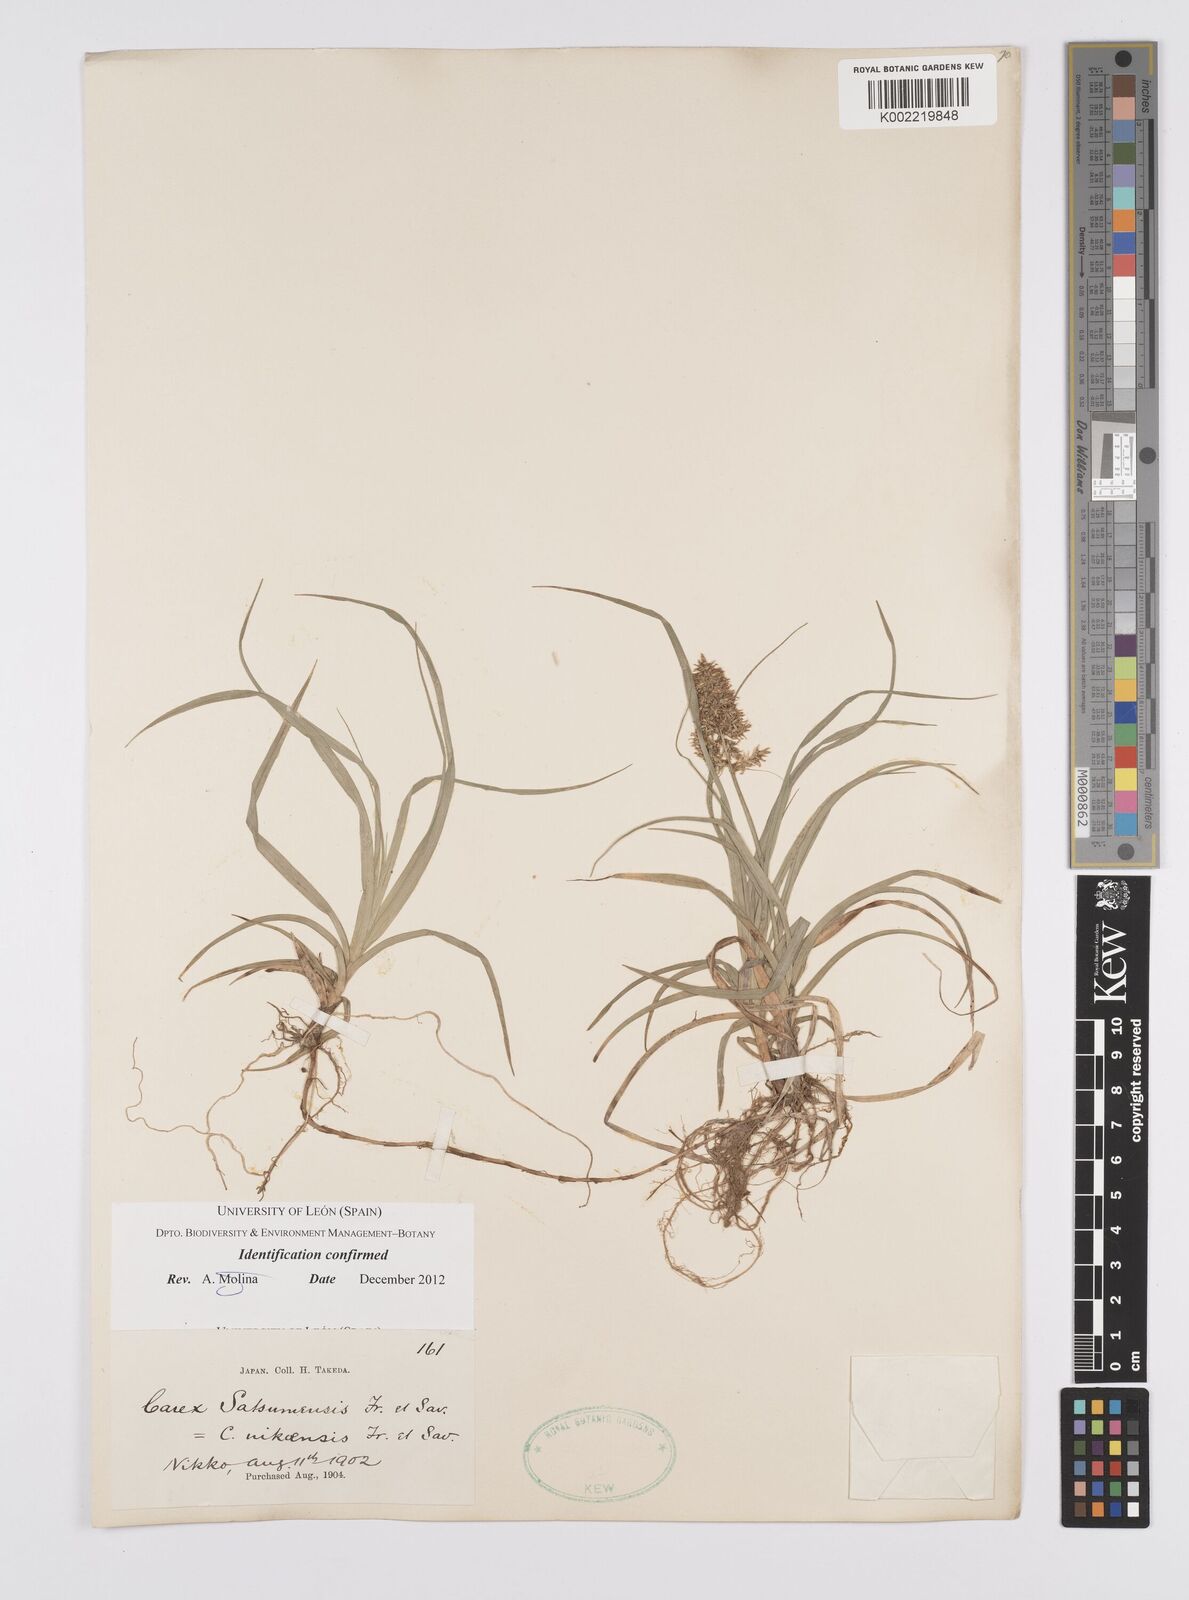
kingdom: Plantae
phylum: Tracheophyta
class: Liliopsida
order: Poales
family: Cyperaceae
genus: Carex
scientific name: Carex satsumensis
